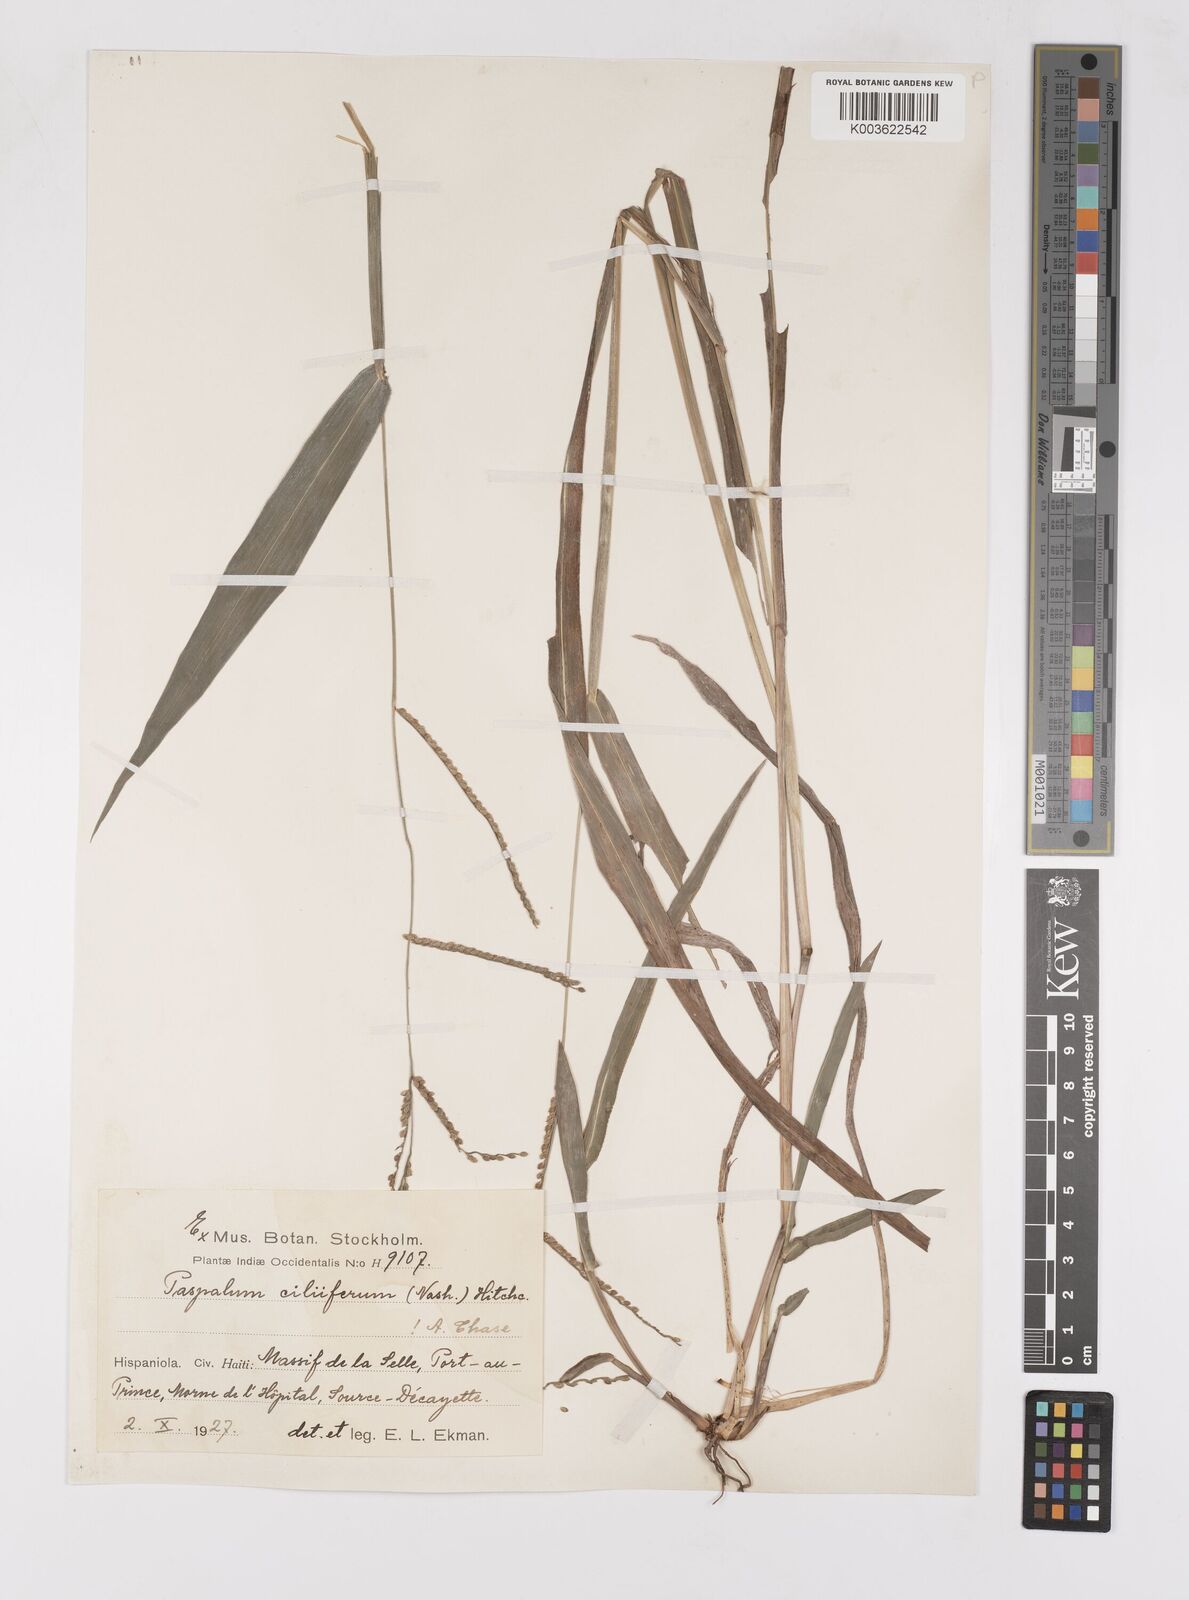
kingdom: Plantae
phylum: Tracheophyta
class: Liliopsida
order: Poales
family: Poaceae
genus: Paspalum
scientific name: Paspalum langei
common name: Rusty-seed paspalum
